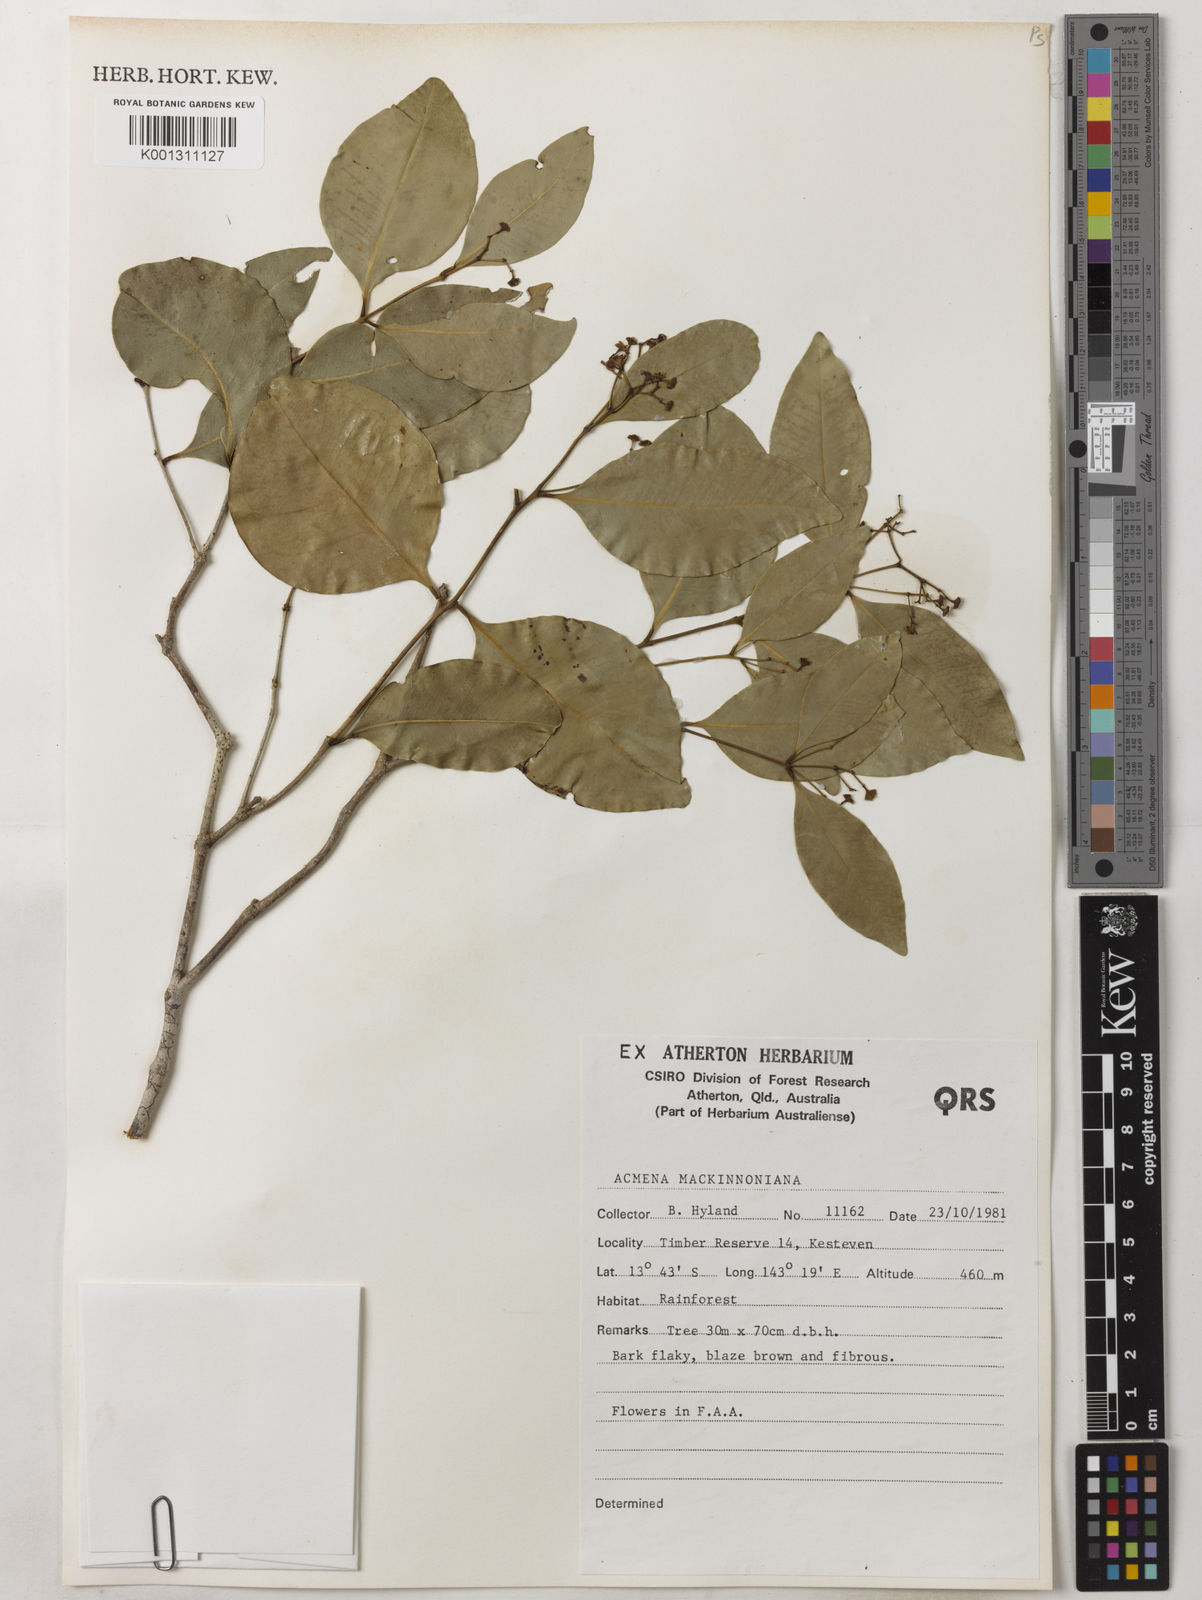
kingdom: Plantae
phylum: Tracheophyta
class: Magnoliopsida
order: Myrtales
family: Myrtaceae
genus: Syzygium
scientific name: Syzygium mackinnonianum
